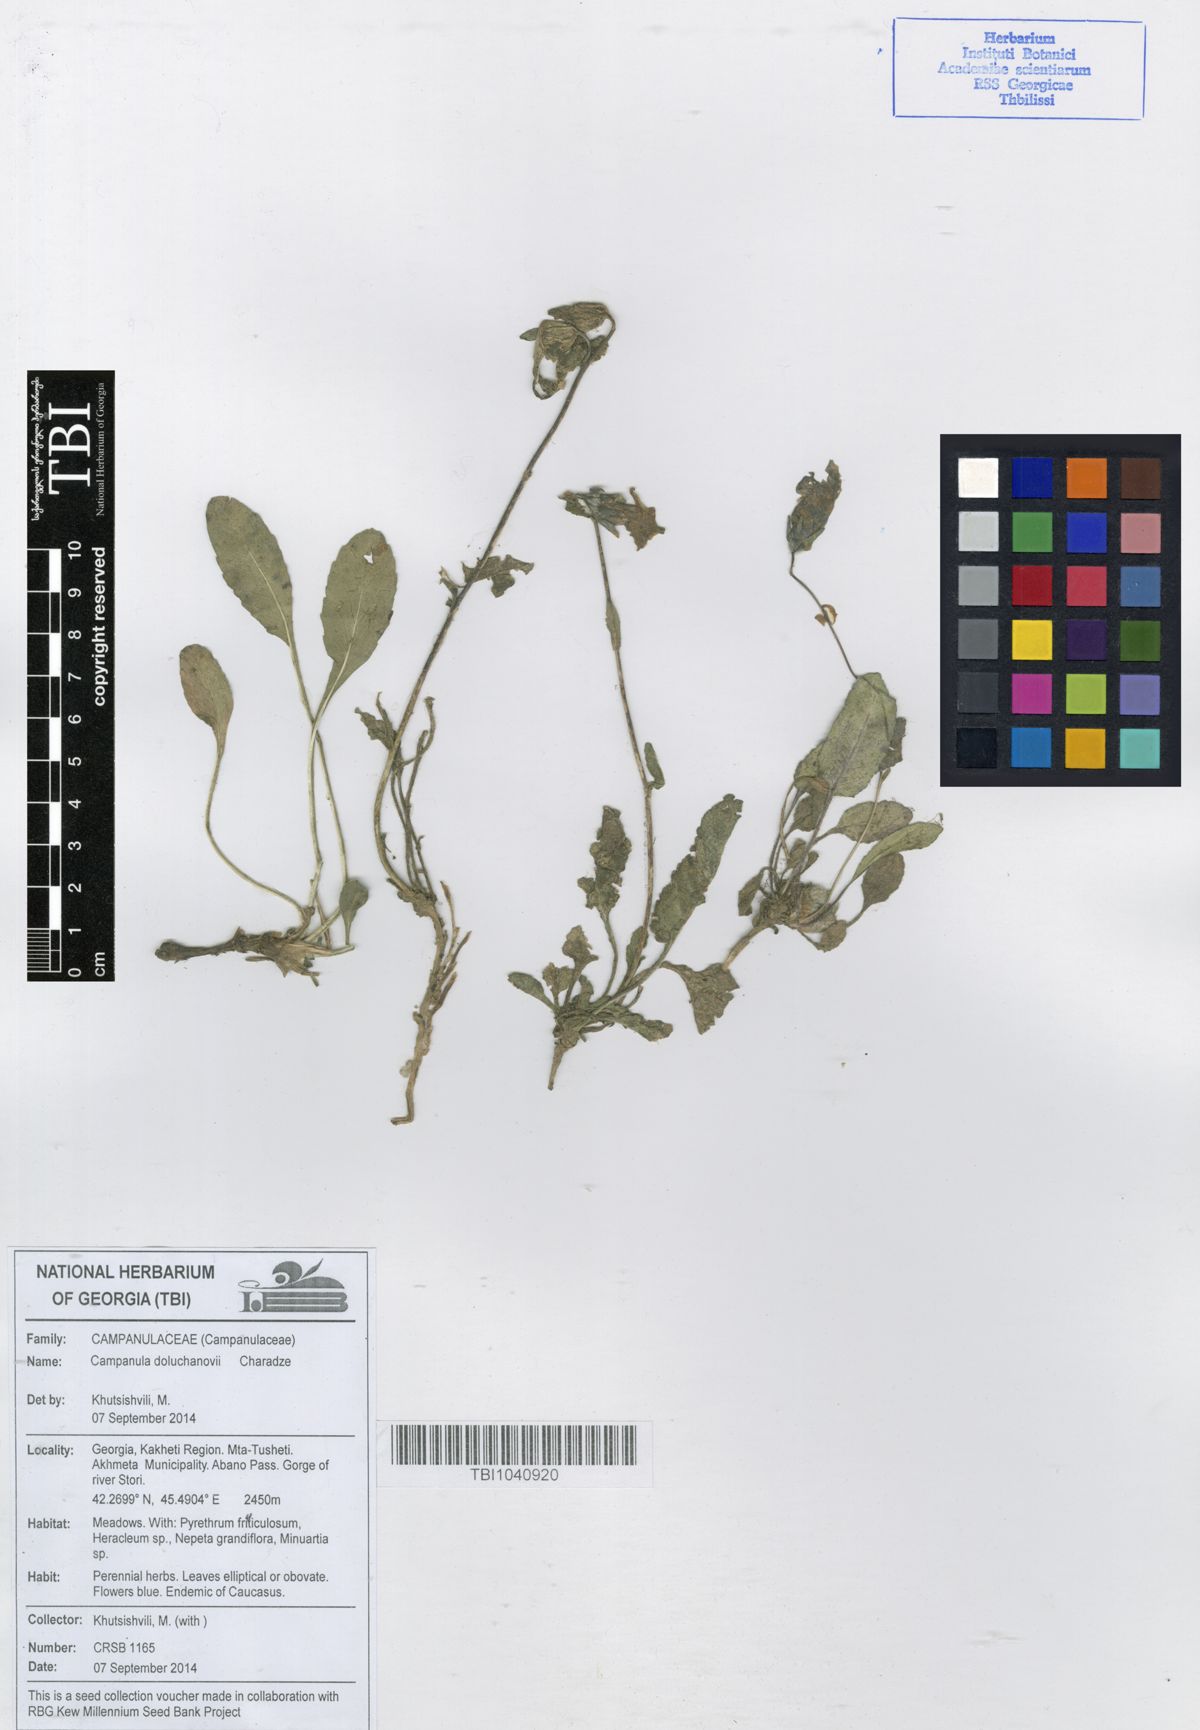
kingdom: Plantae
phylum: Tracheophyta
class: Magnoliopsida
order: Asterales
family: Campanulaceae
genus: Campanula
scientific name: Campanula bellidifolia
